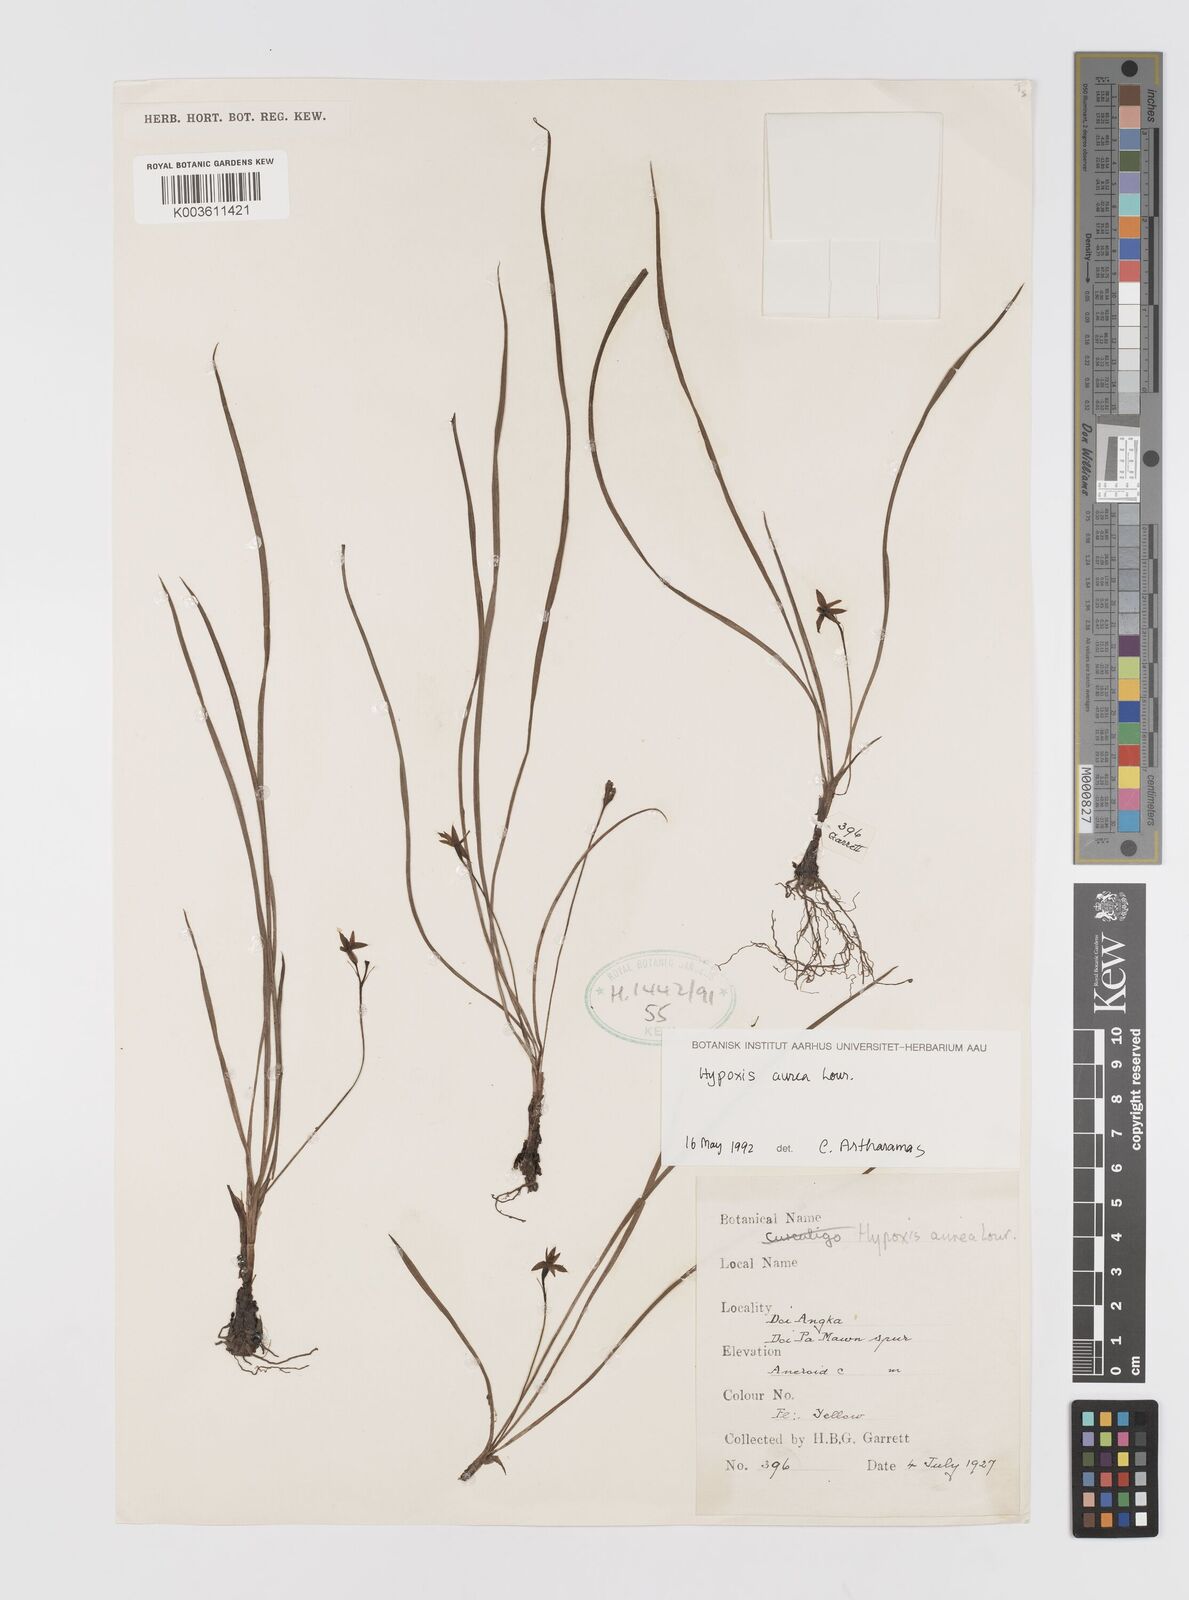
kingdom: Plantae
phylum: Tracheophyta
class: Liliopsida
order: Asparagales
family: Hypoxidaceae
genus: Hypoxis
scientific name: Hypoxis aurea
